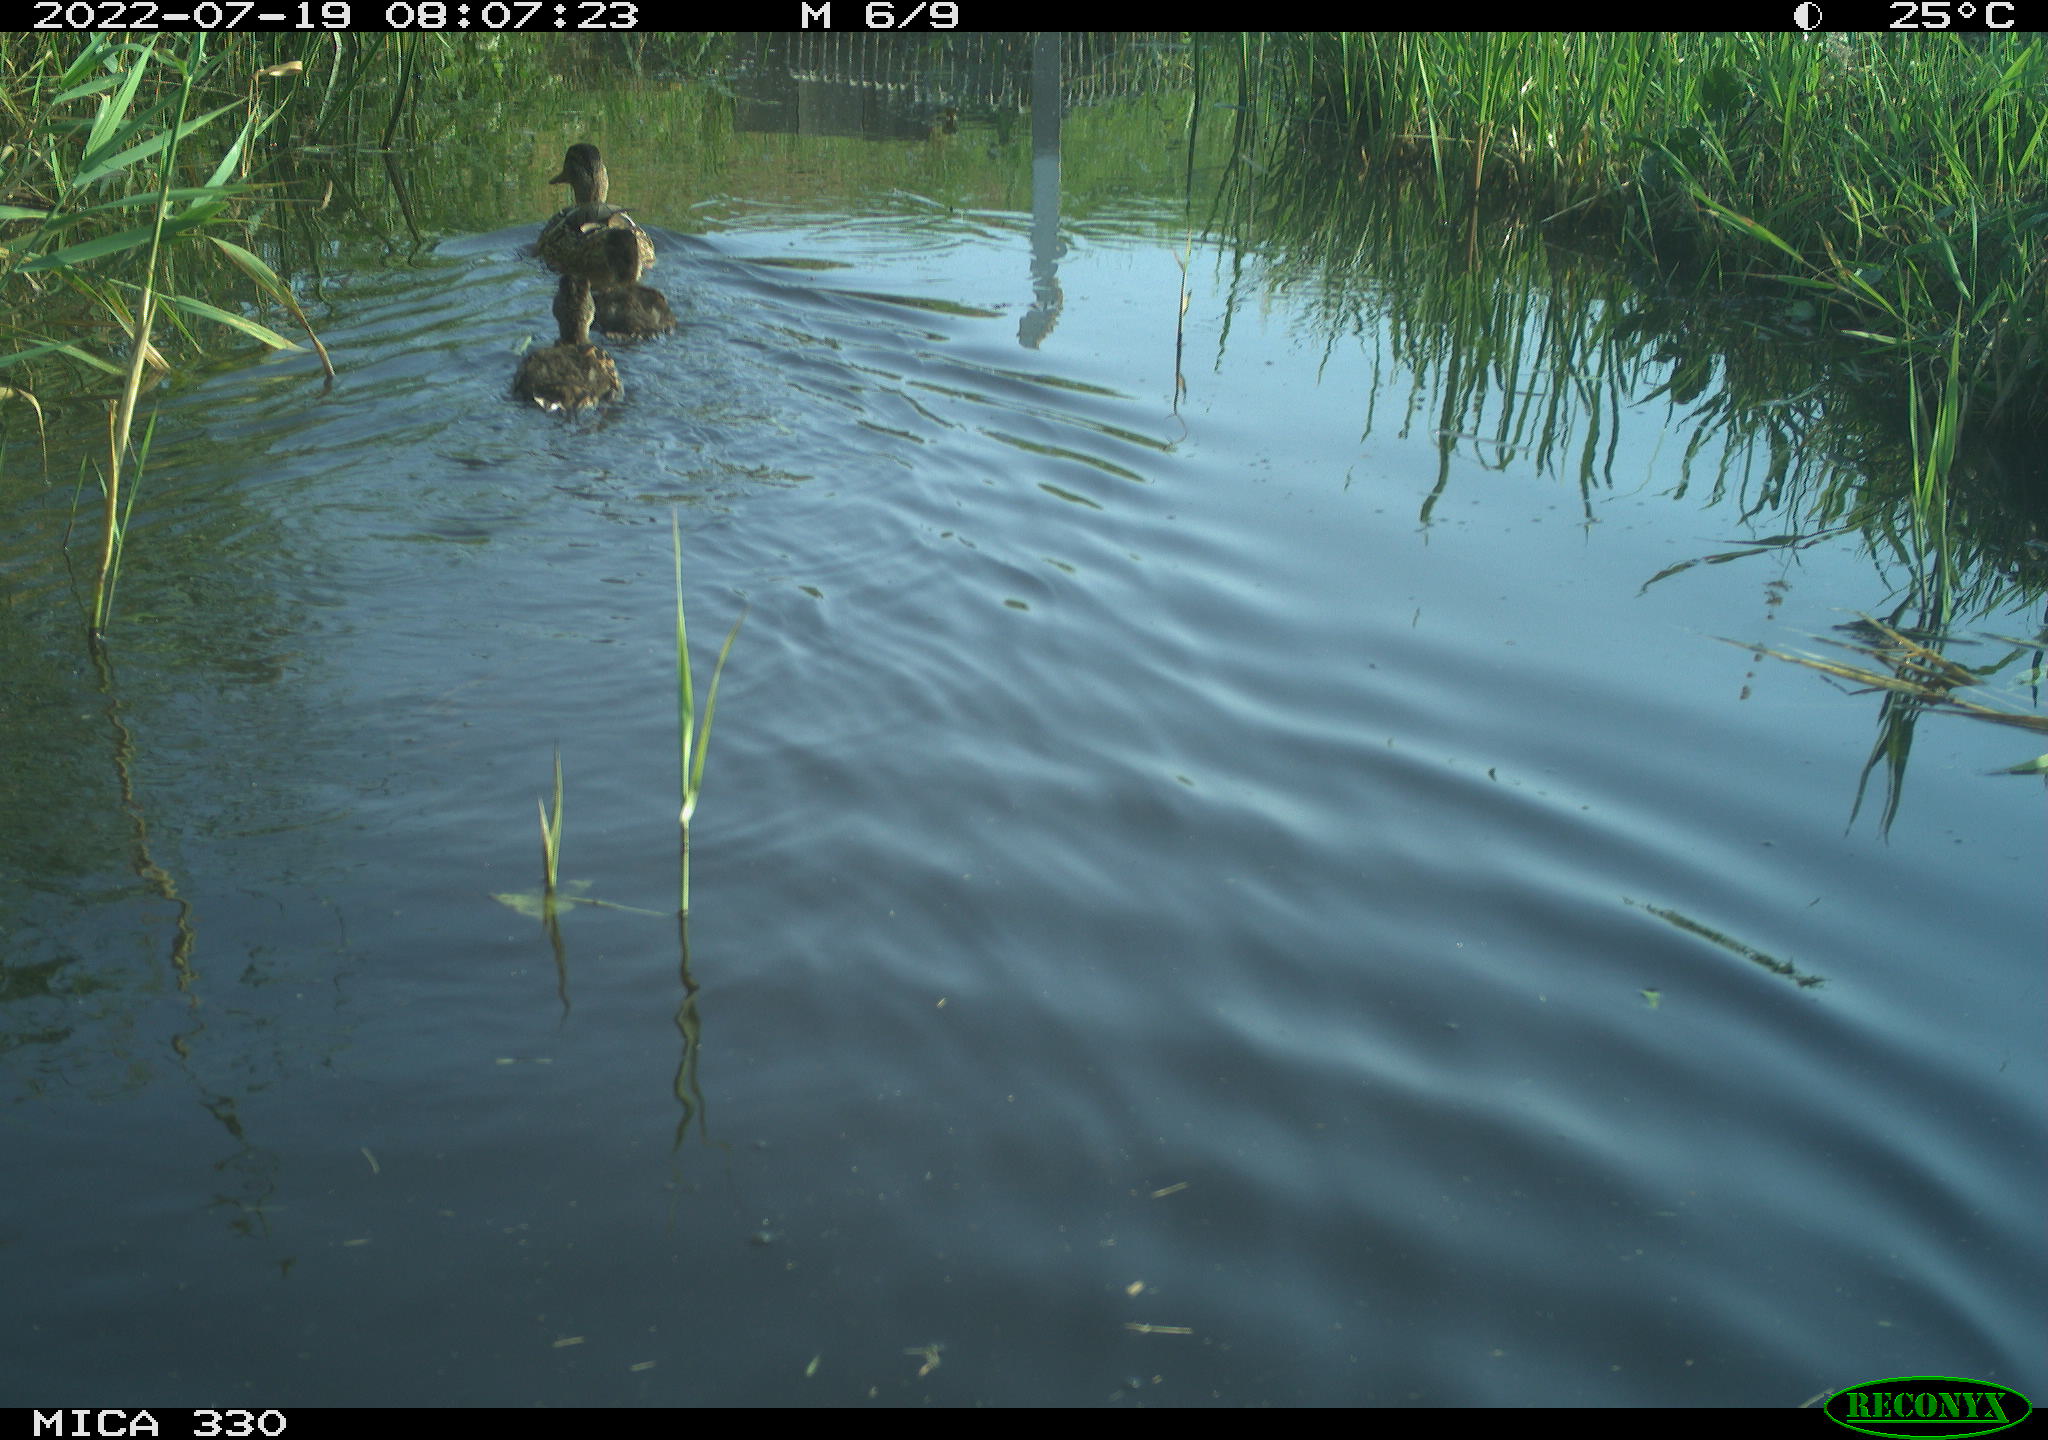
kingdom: Animalia
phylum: Chordata
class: Aves
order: Anseriformes
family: Anatidae
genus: Anas
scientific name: Anas platyrhynchos
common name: Mallard
